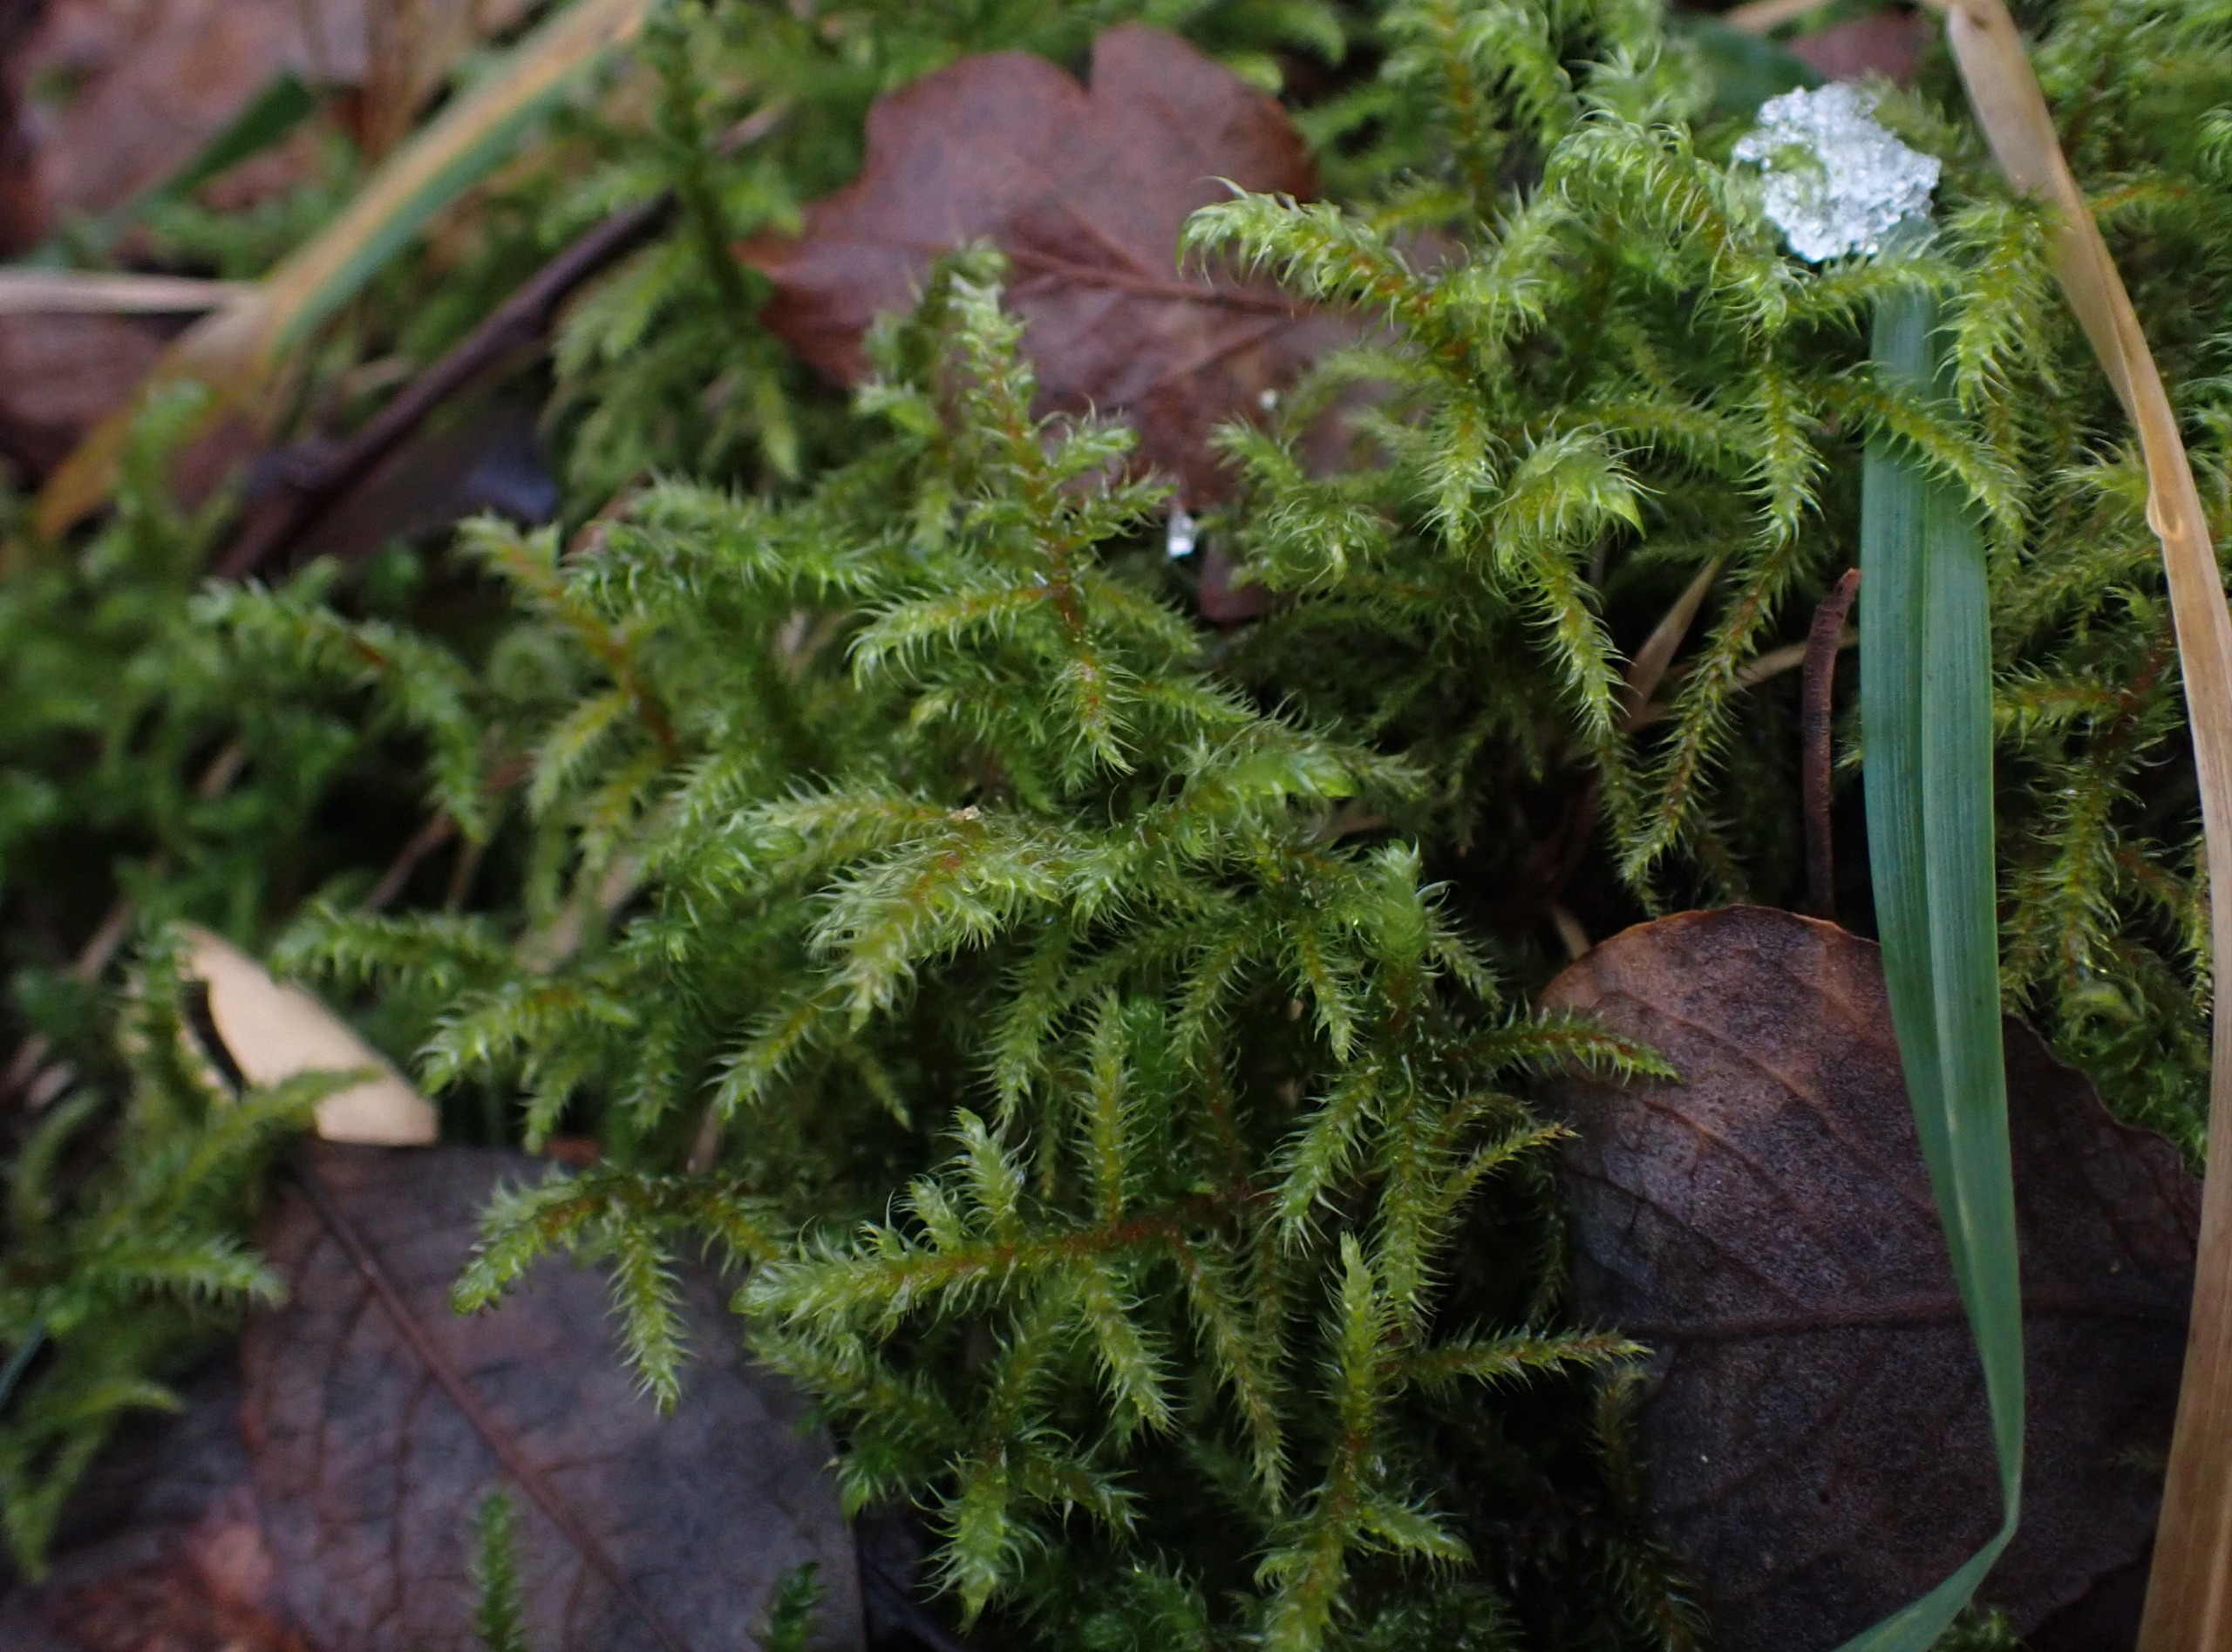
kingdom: Plantae
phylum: Bryophyta
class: Bryopsida
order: Hypnales
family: Hylocomiaceae
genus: Rhytidiadelphus
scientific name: Rhytidiadelphus loreus
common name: Ulvefod-kransemos
